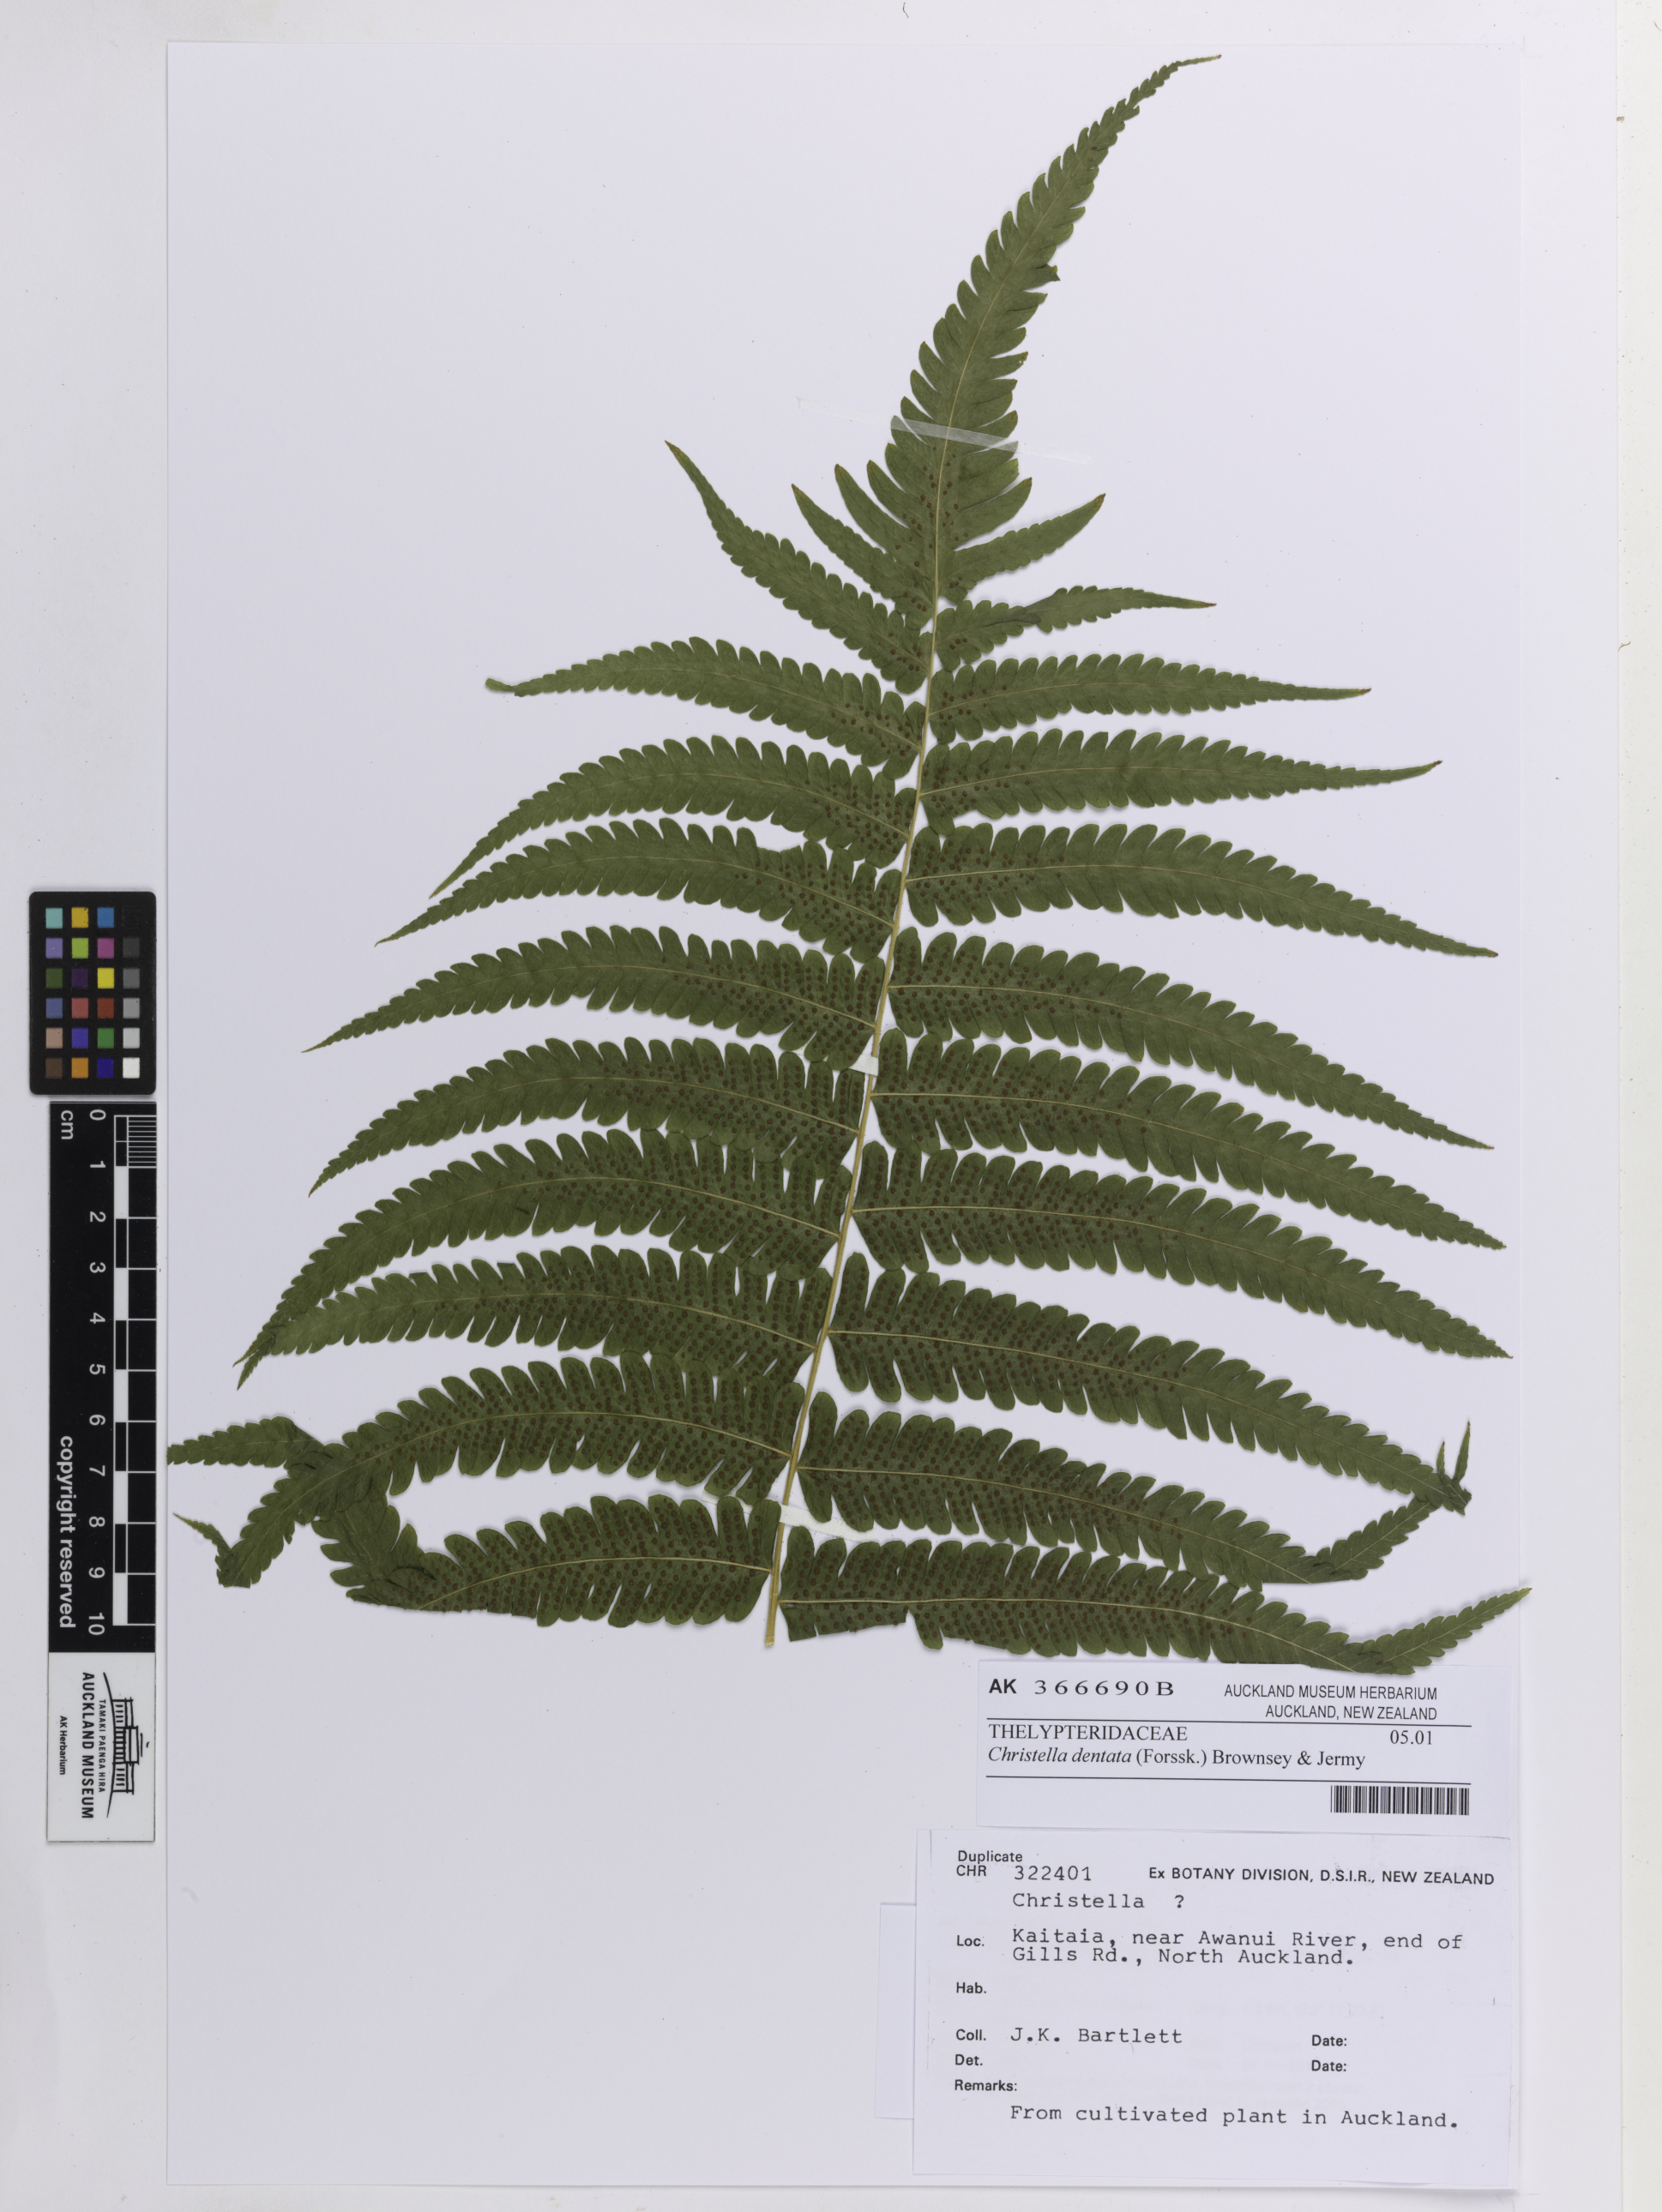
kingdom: Plantae
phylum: Tracheophyta
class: Polypodiopsida
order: Polypodiales
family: Thelypteridaceae
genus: Christella
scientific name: Christella dentata
